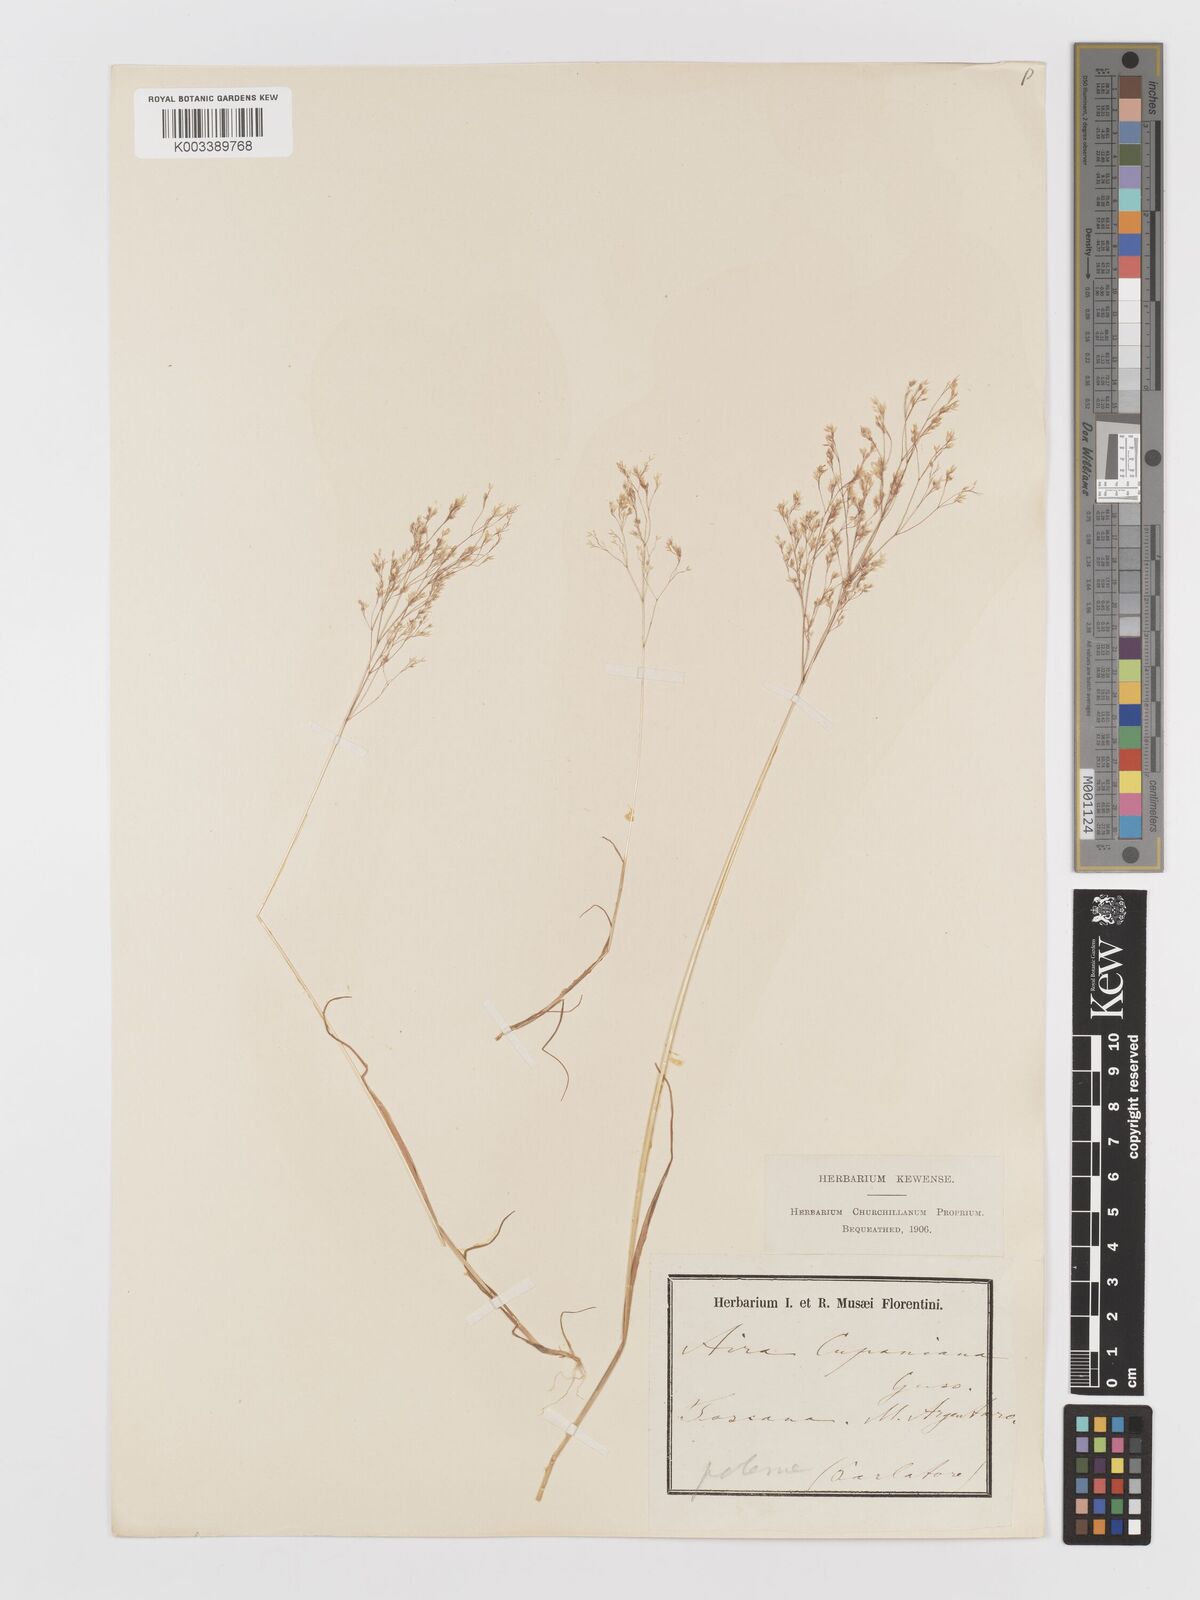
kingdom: Plantae
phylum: Tracheophyta
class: Liliopsida
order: Poales
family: Poaceae
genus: Aira
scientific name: Aira cupaniana
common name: Silver hairgrass
